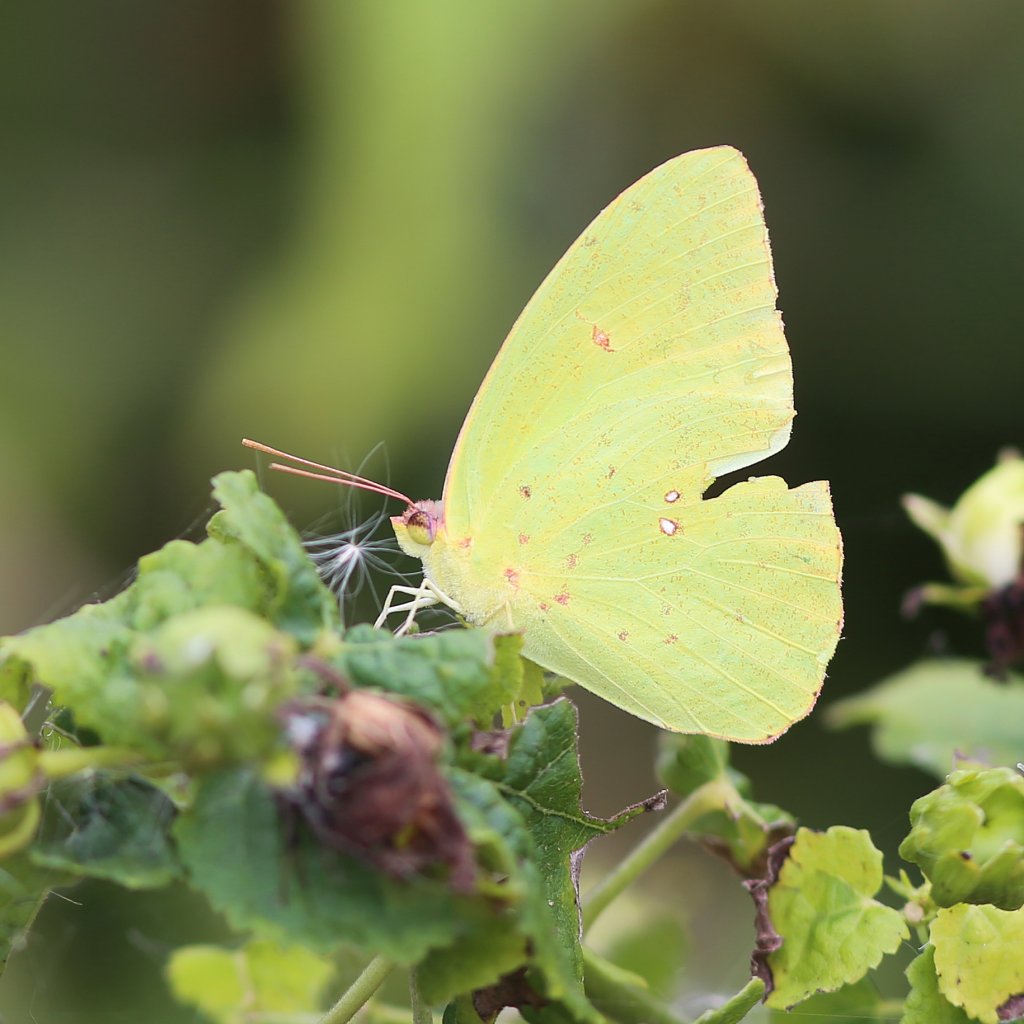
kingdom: Animalia
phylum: Arthropoda
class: Insecta
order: Lepidoptera
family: Pieridae
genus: Phoebis
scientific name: Phoebis sennae
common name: Cloudless Sulphur
